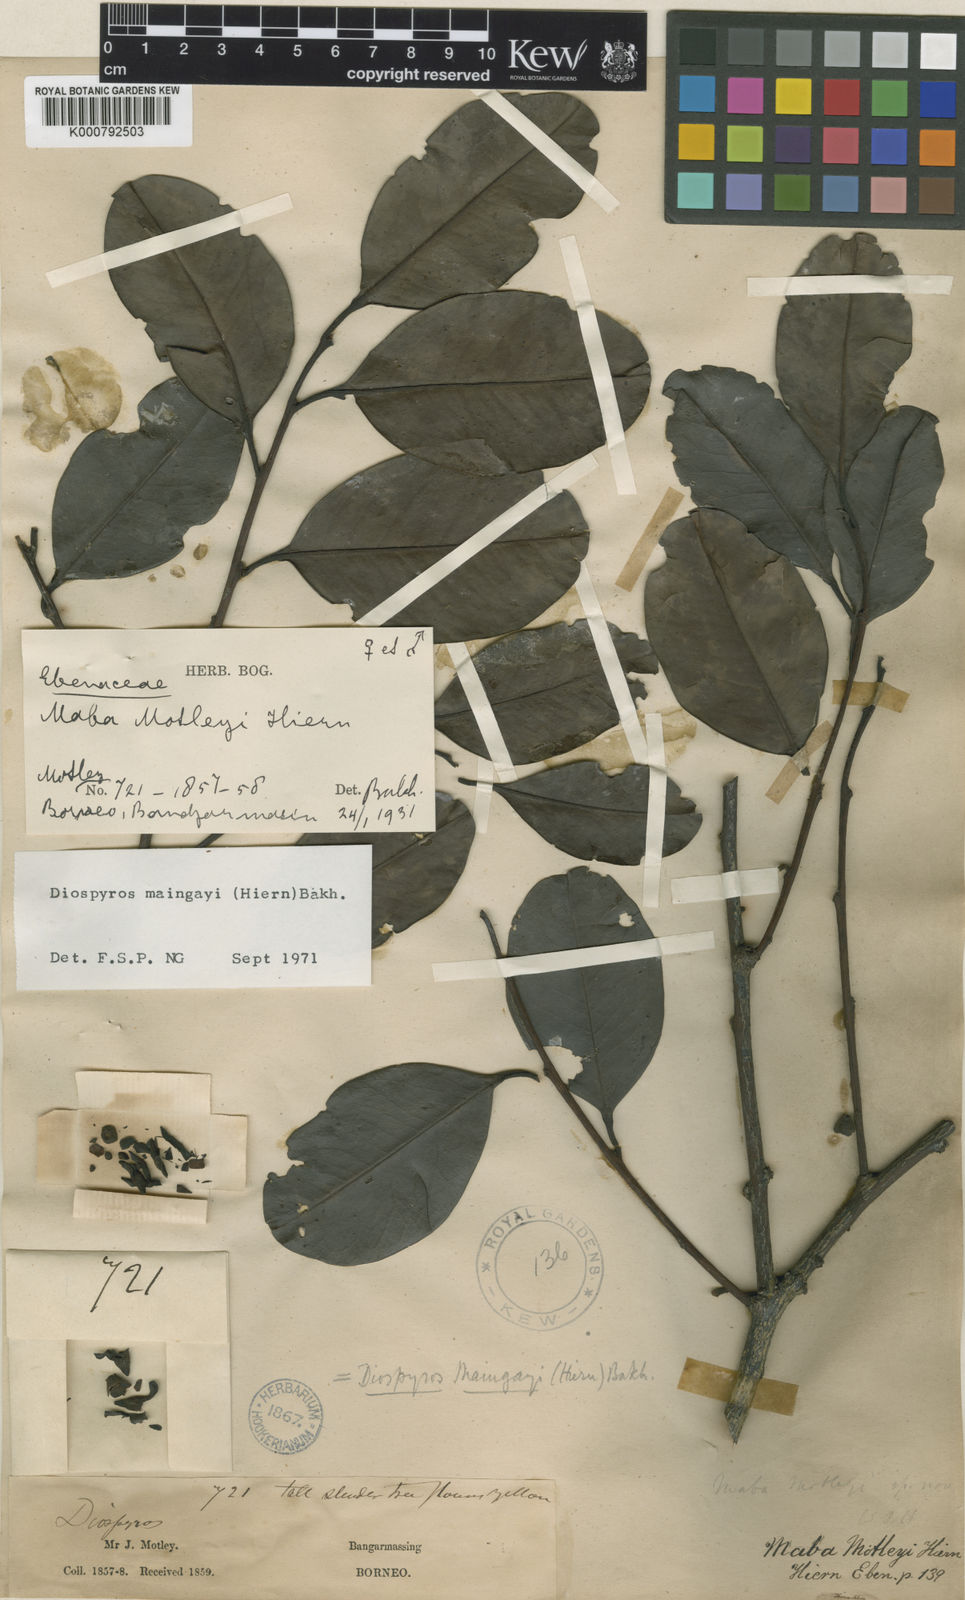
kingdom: Plantae
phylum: Tracheophyta
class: Magnoliopsida
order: Ericales
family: Ebenaceae
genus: Diospyros
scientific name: Diospyros maingayi
